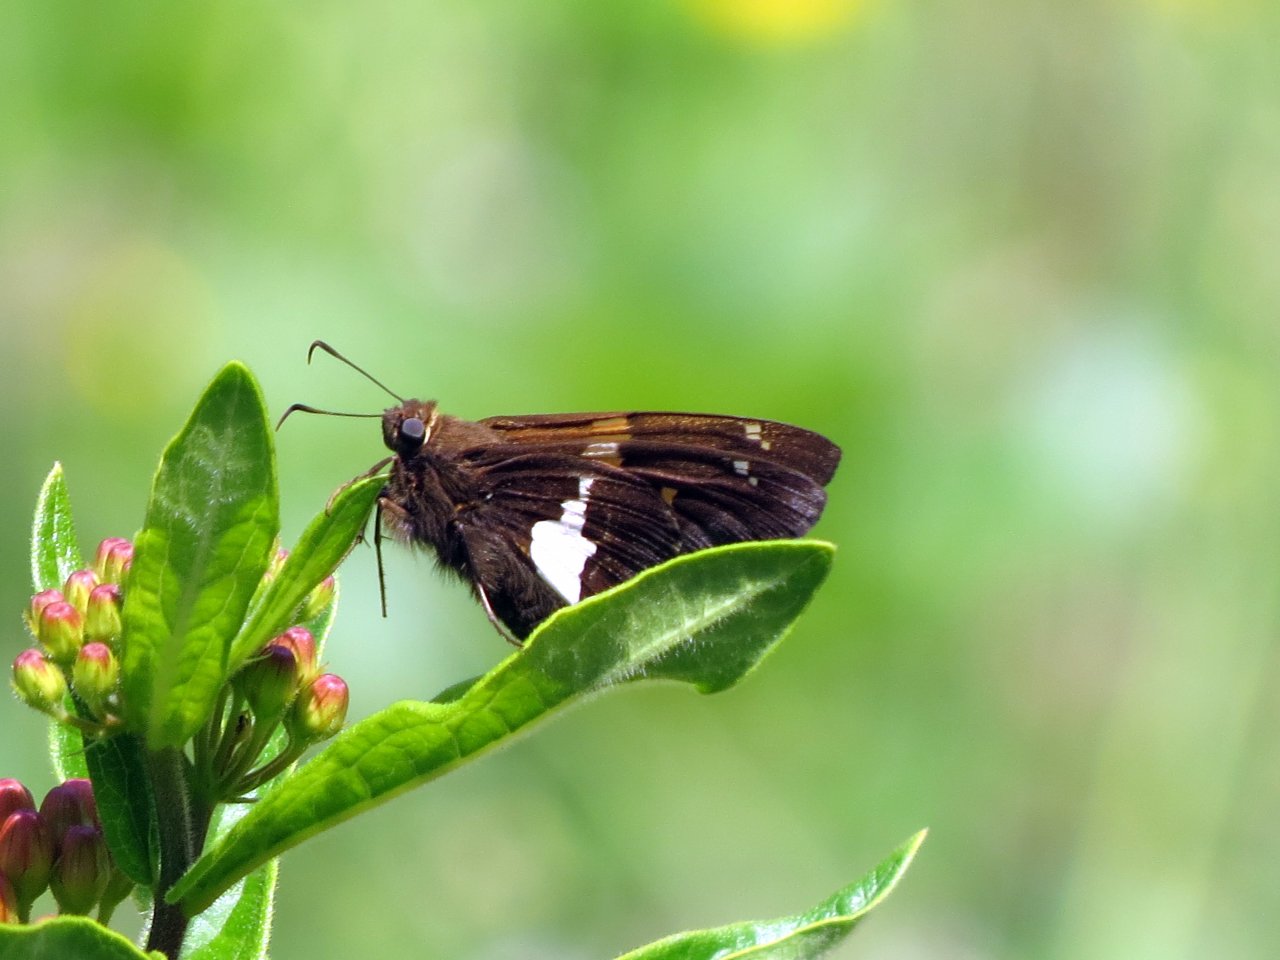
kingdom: Animalia
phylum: Arthropoda
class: Insecta
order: Lepidoptera
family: Hesperiidae
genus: Epargyreus
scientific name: Epargyreus clarus
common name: Silver-spotted Skipper
